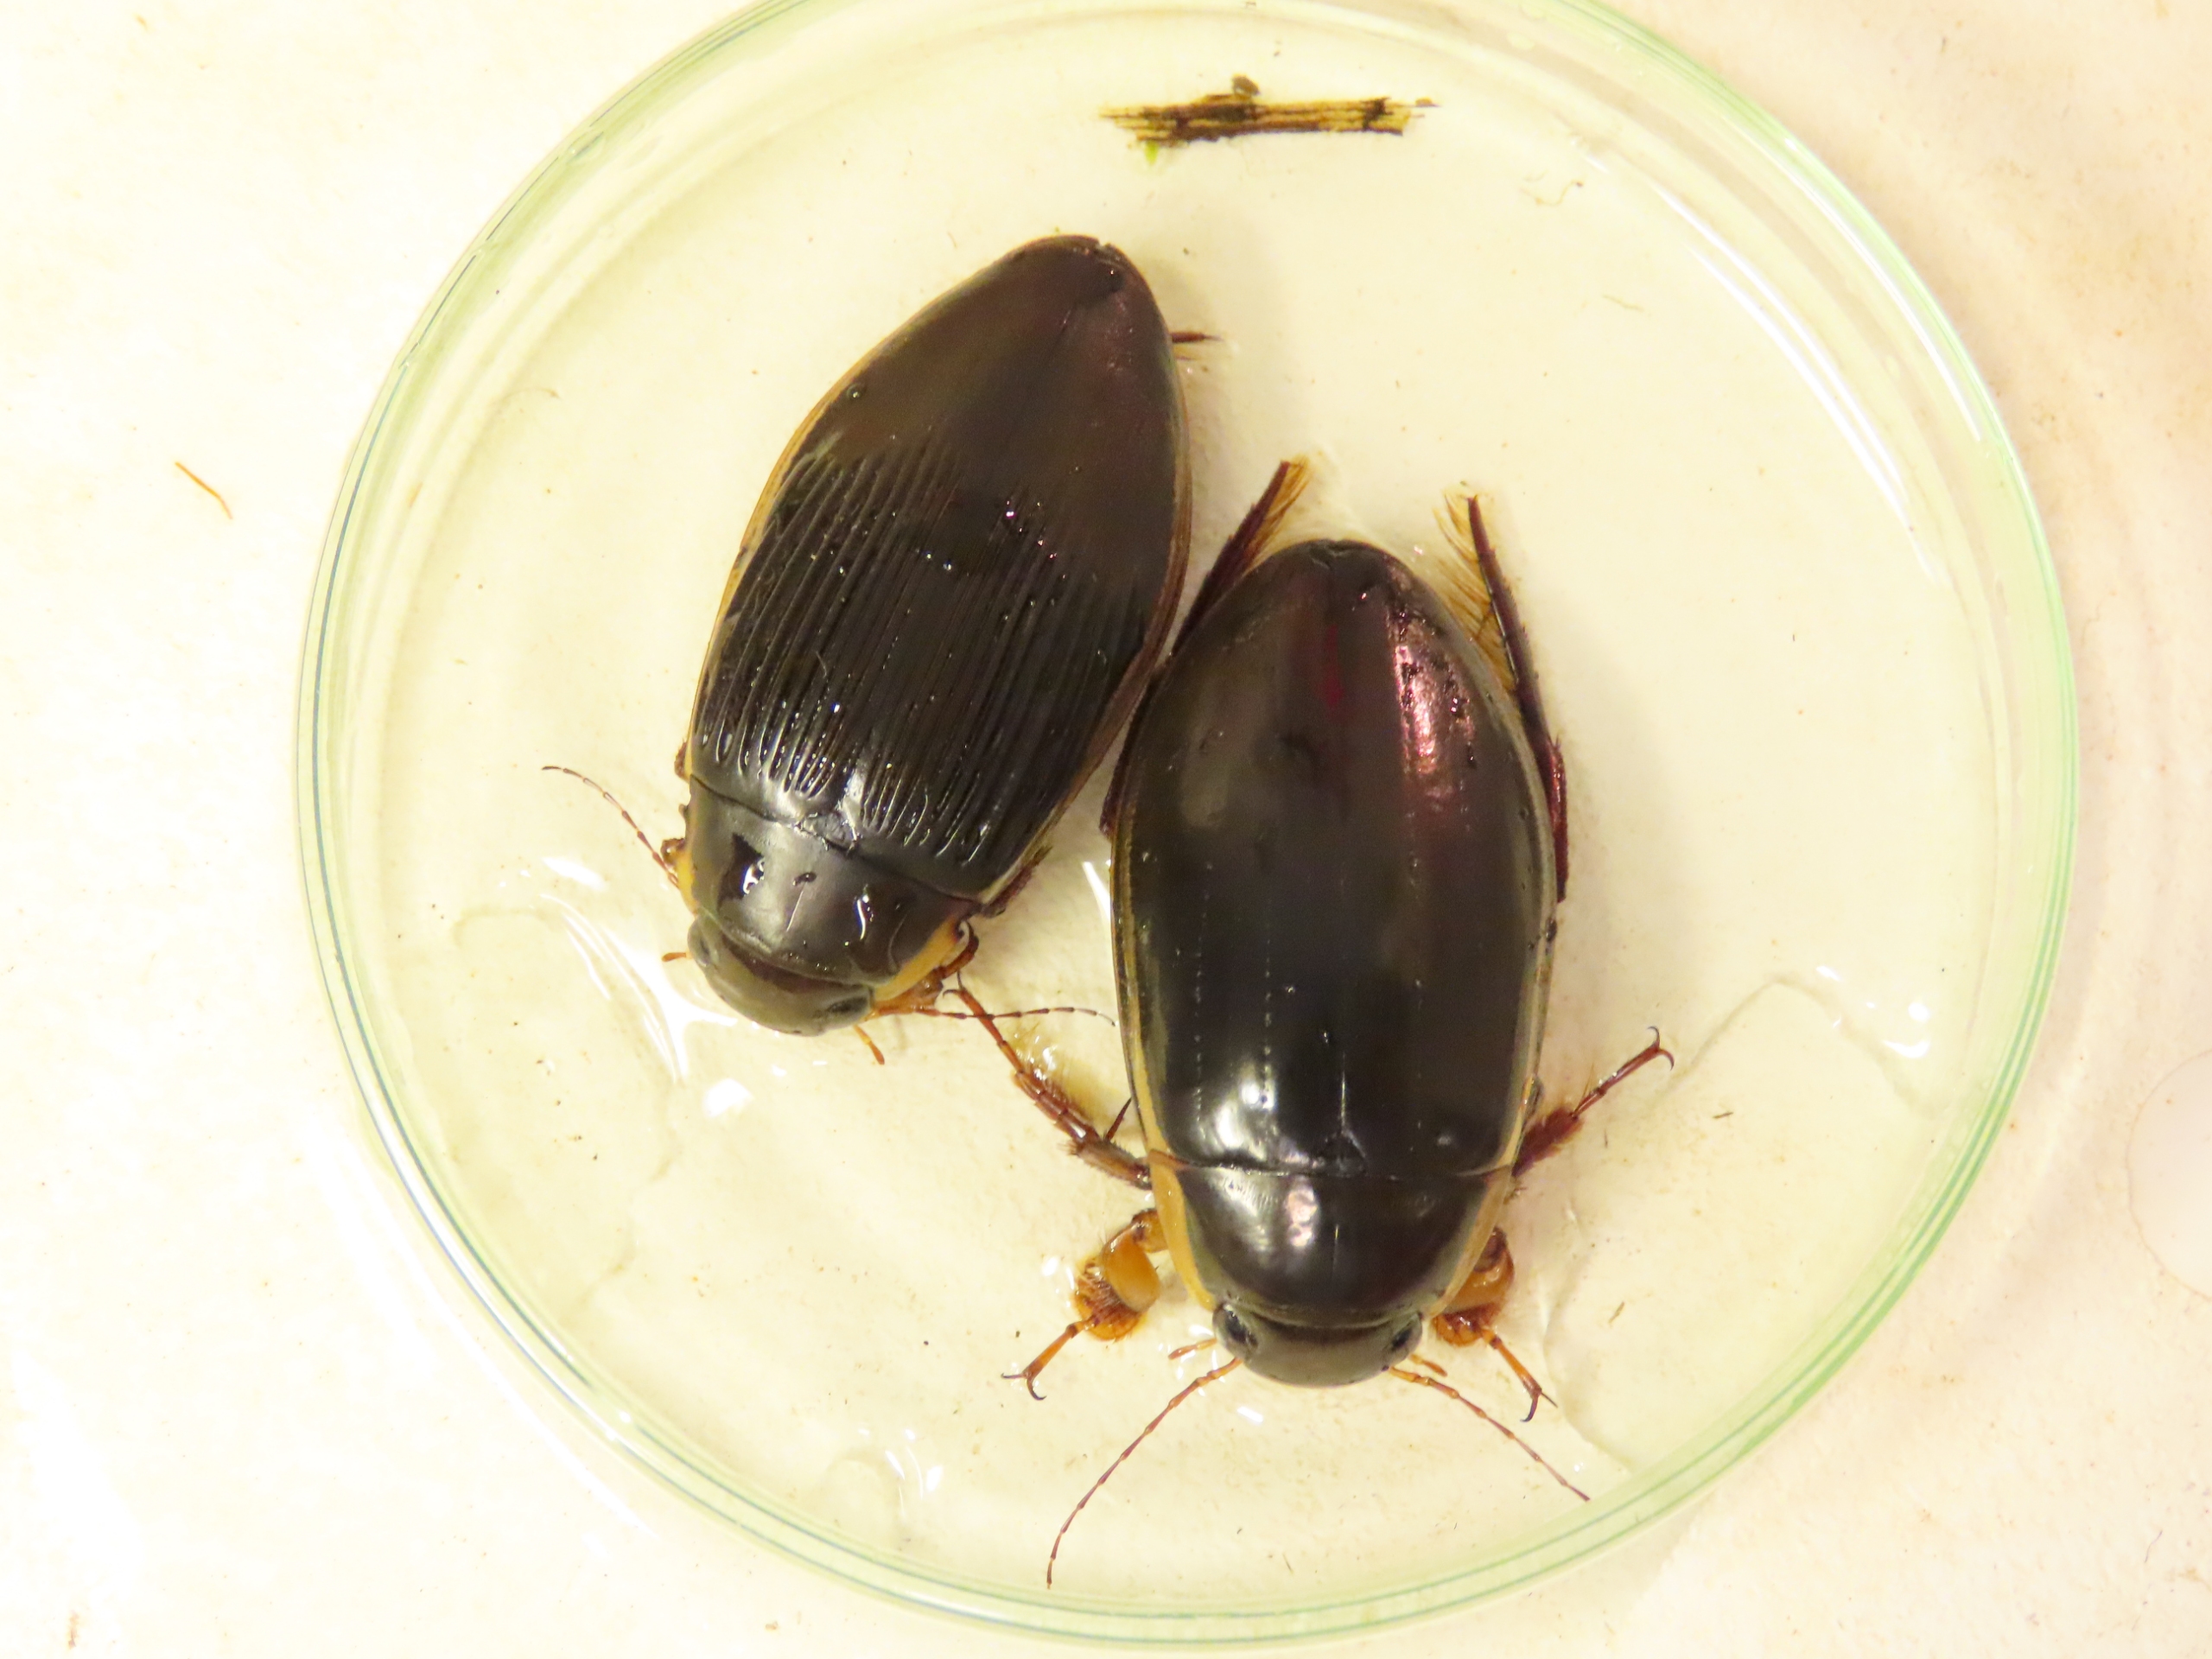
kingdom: Animalia
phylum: Arthropoda
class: Insecta
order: Coleoptera
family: Dytiscidae
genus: Dytiscus
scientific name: Dytiscus dimidiatus
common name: Rundhoftet vandkalv
